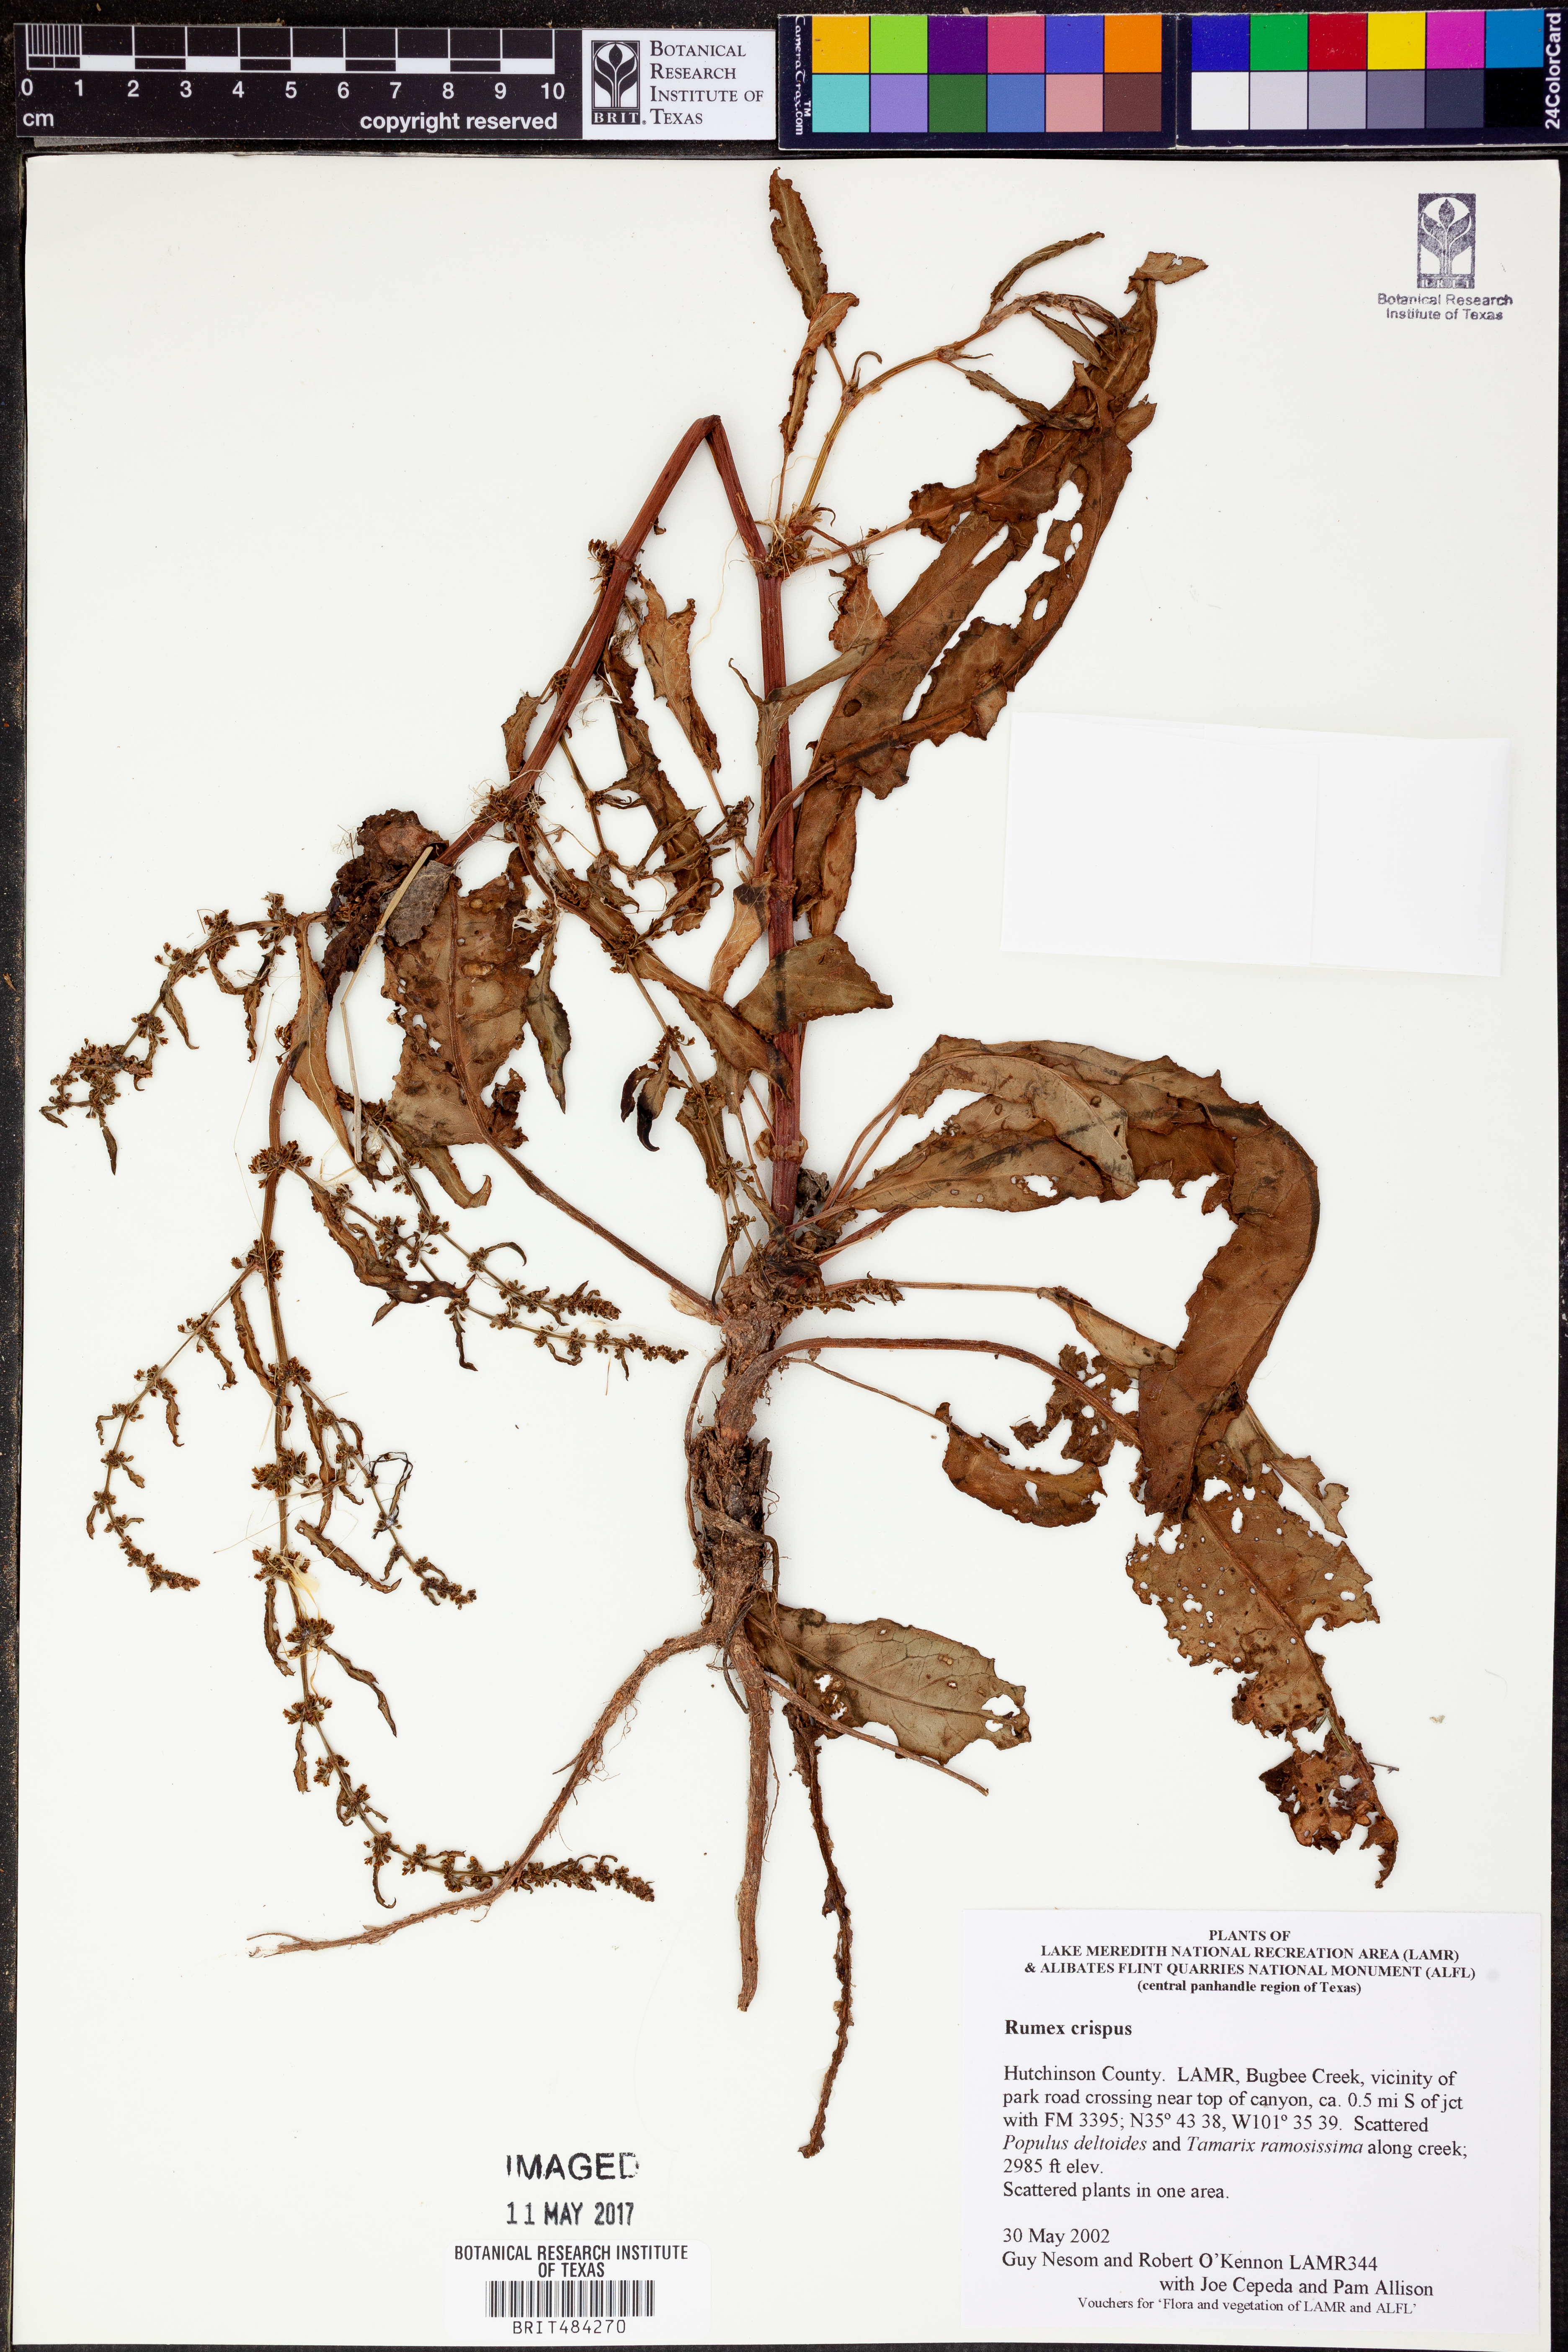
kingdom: Plantae
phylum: Tracheophyta
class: Magnoliopsida
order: Caryophyllales
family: Polygonaceae
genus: Rumex
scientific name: Rumex crispus
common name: Curled dock
